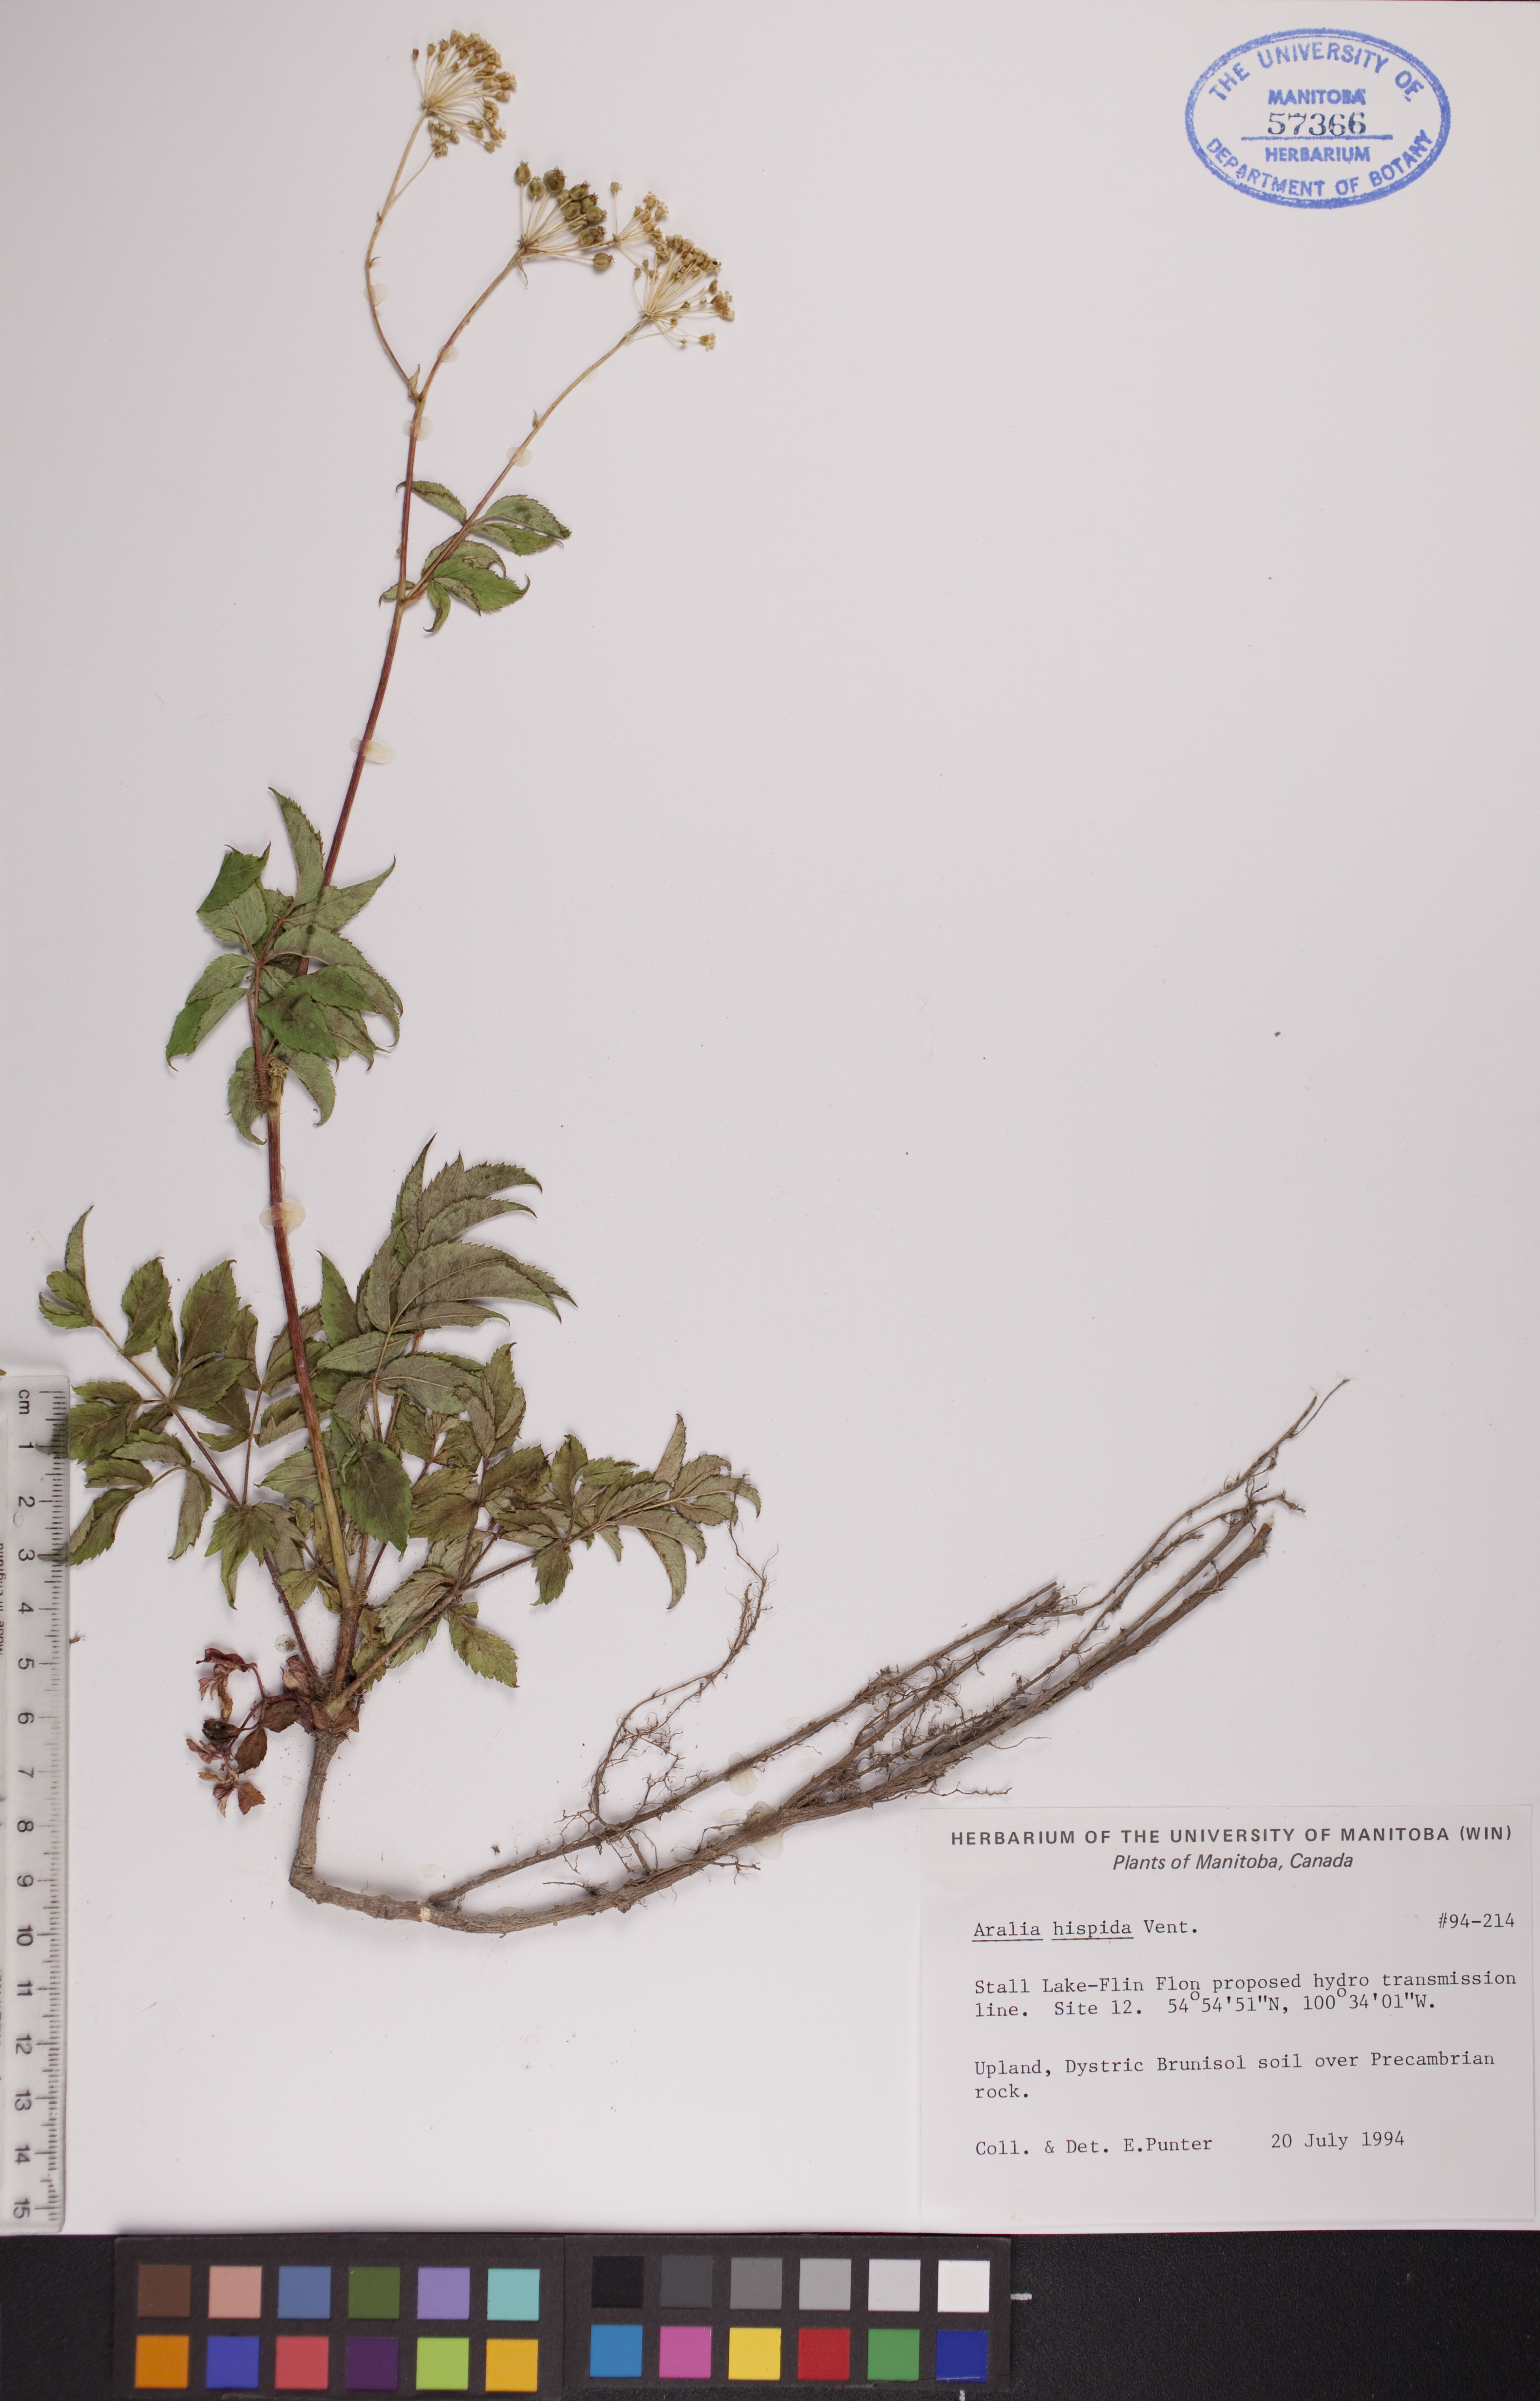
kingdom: Plantae
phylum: Tracheophyta
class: Magnoliopsida
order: Apiales
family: Araliaceae
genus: Aralia
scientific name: Aralia hispida
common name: Bristly sarsaparilla
